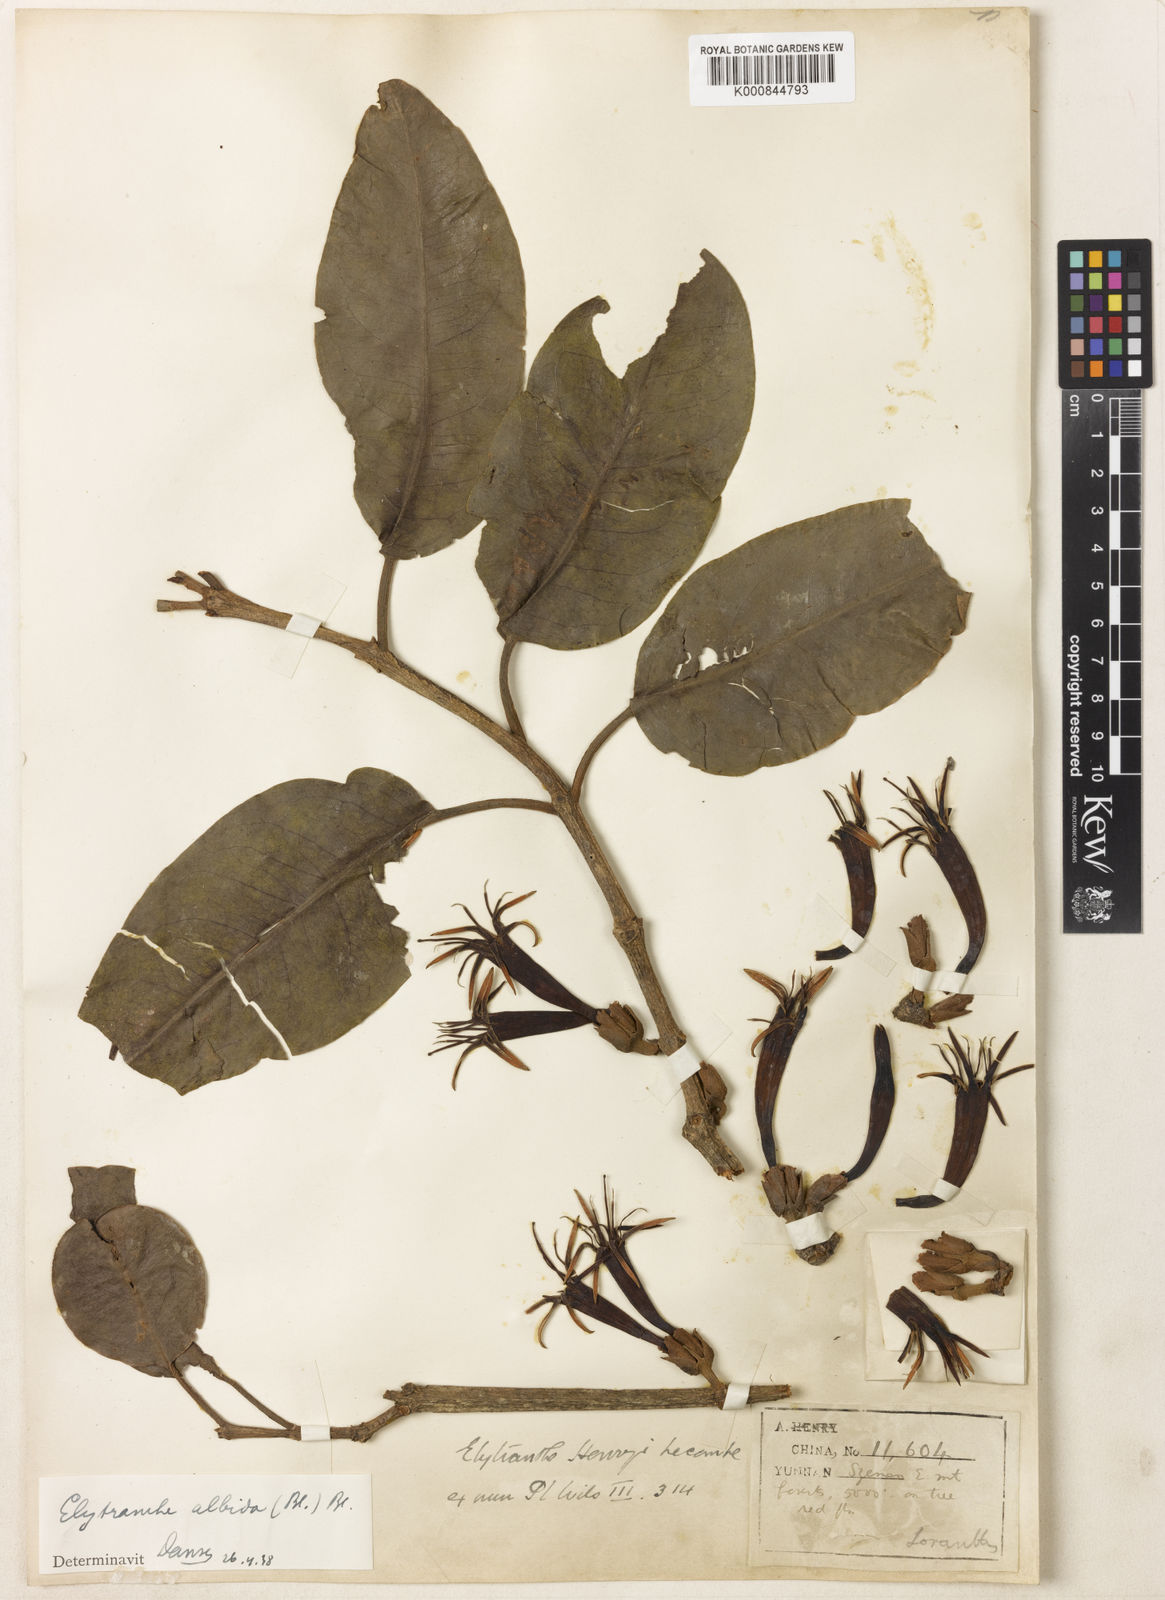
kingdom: Plantae
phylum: Tracheophyta
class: Magnoliopsida
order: Santalales
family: Loranthaceae
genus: Elytranthe
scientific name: Elytranthe albida
